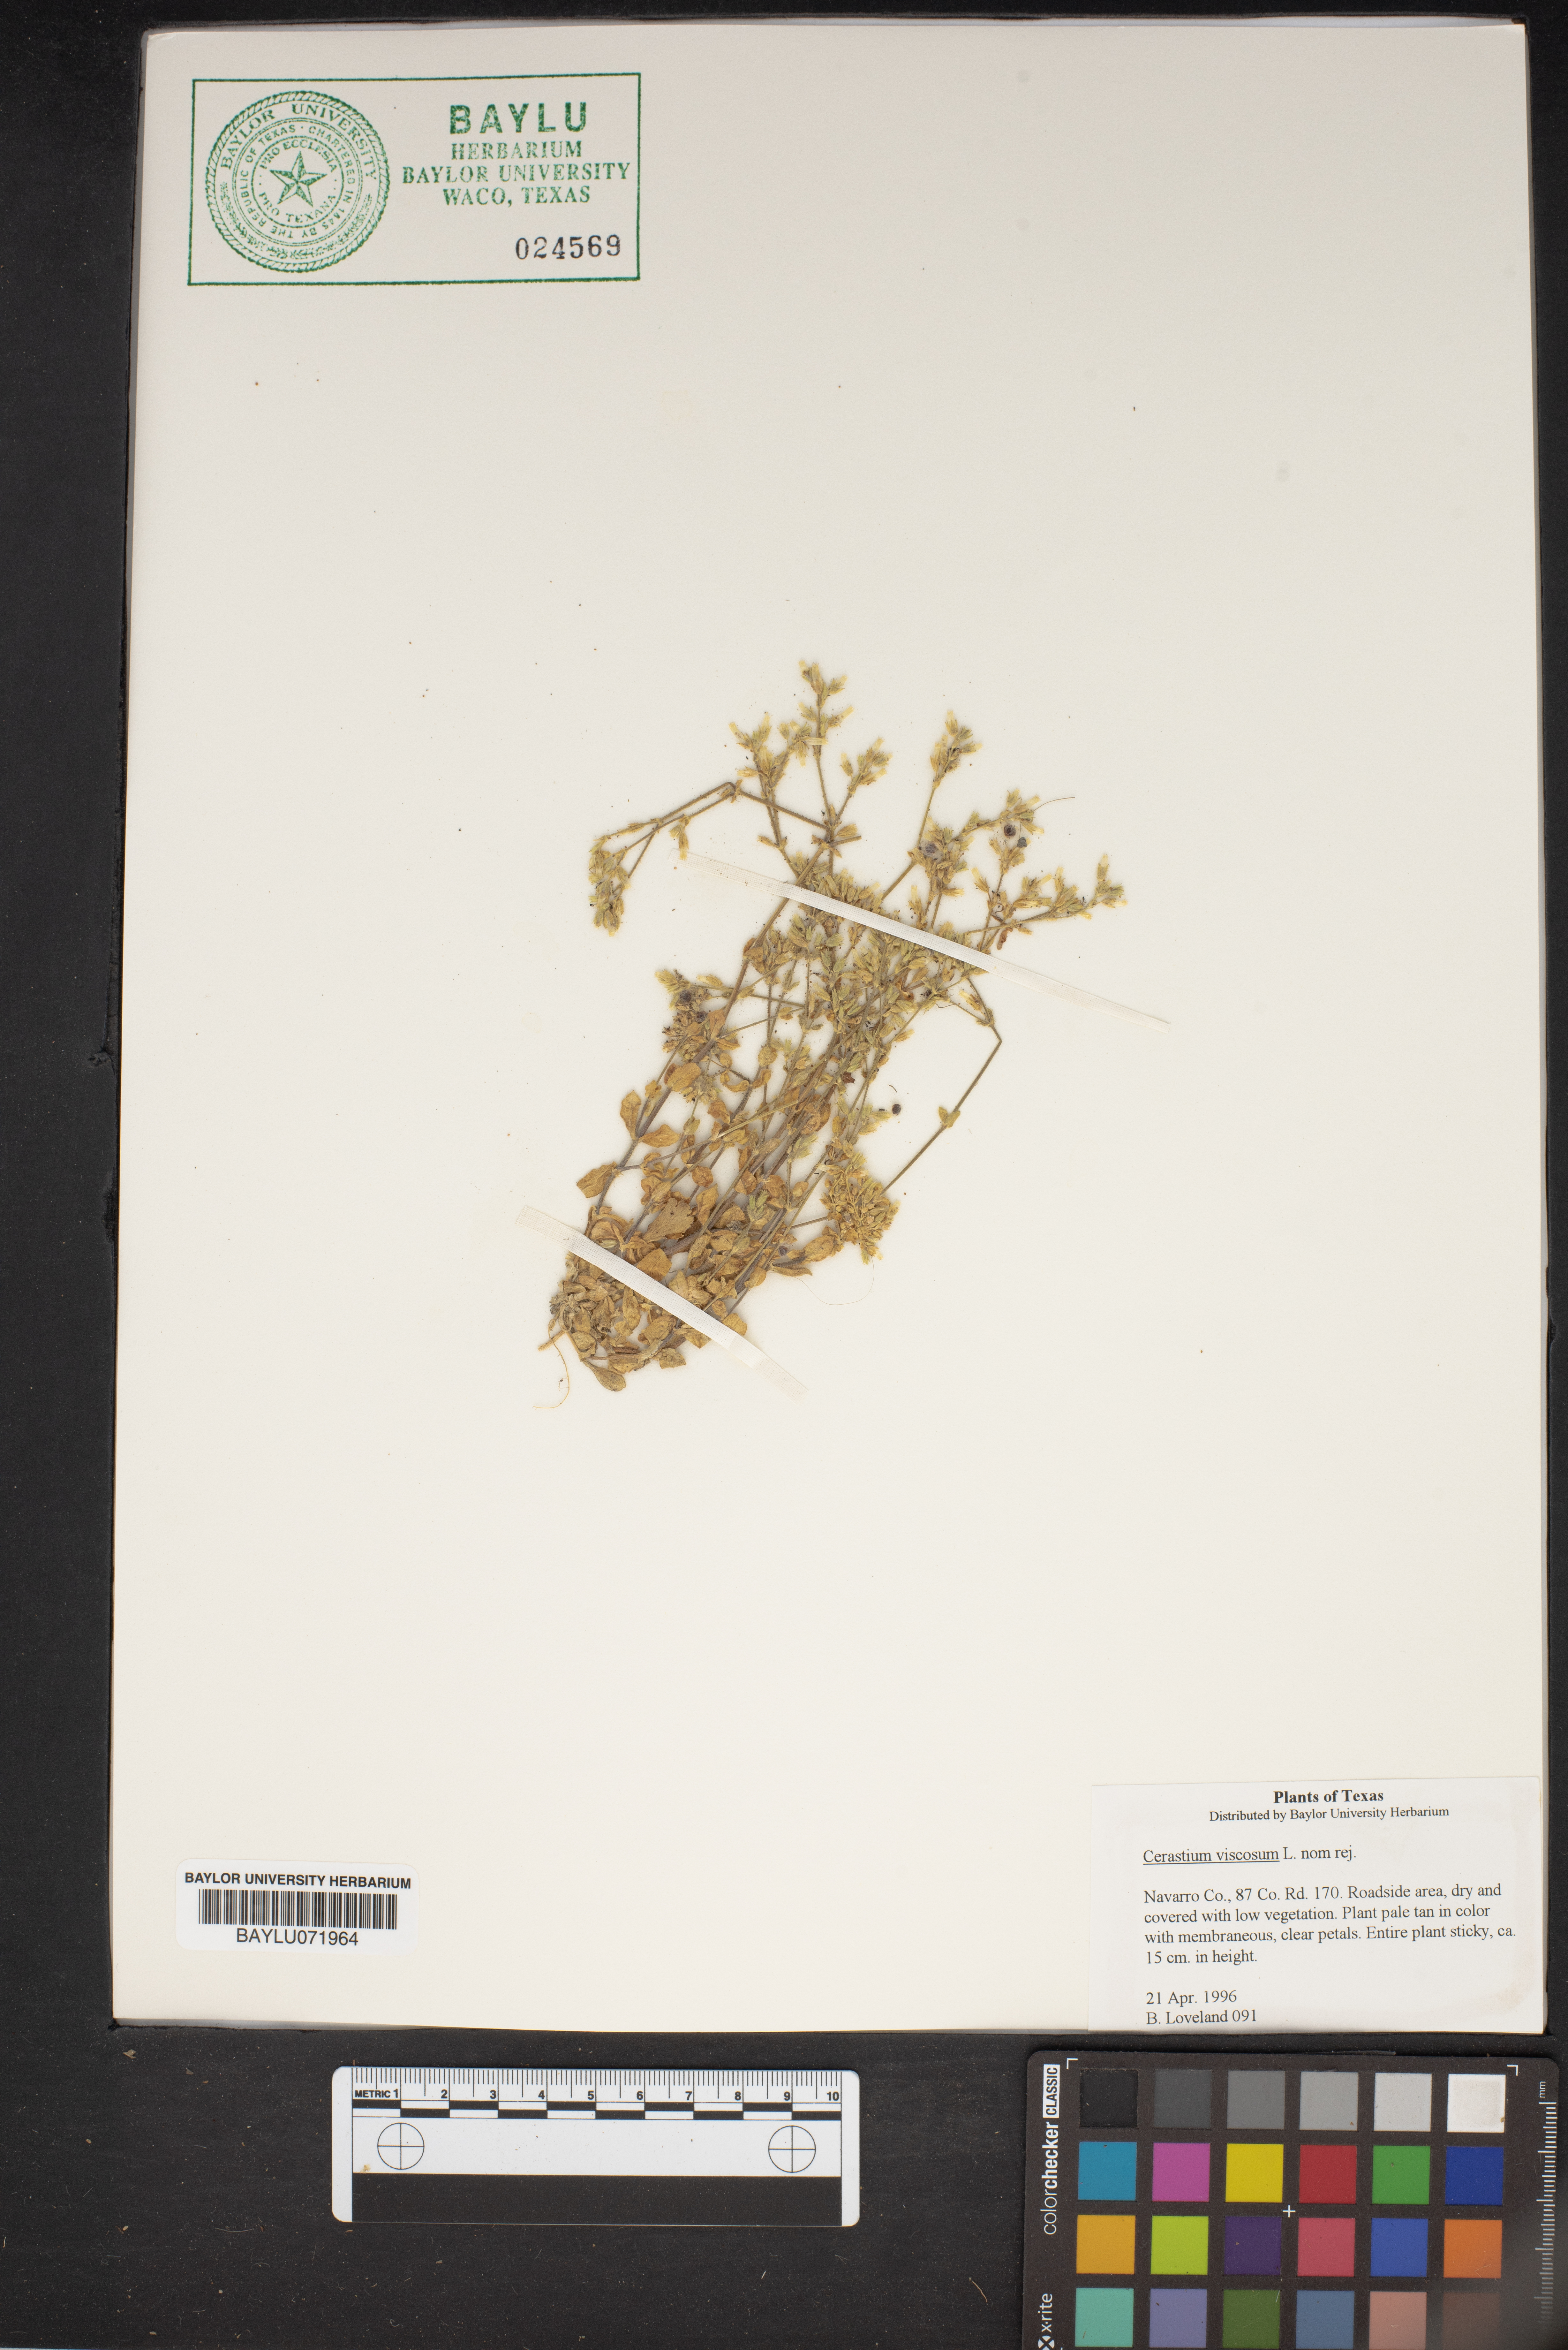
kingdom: Plantae
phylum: Tracheophyta
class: Magnoliopsida
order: Caryophyllales
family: Caryophyllaceae
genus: Cerastium
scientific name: Cerastium holosteoides
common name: Big chickweed
